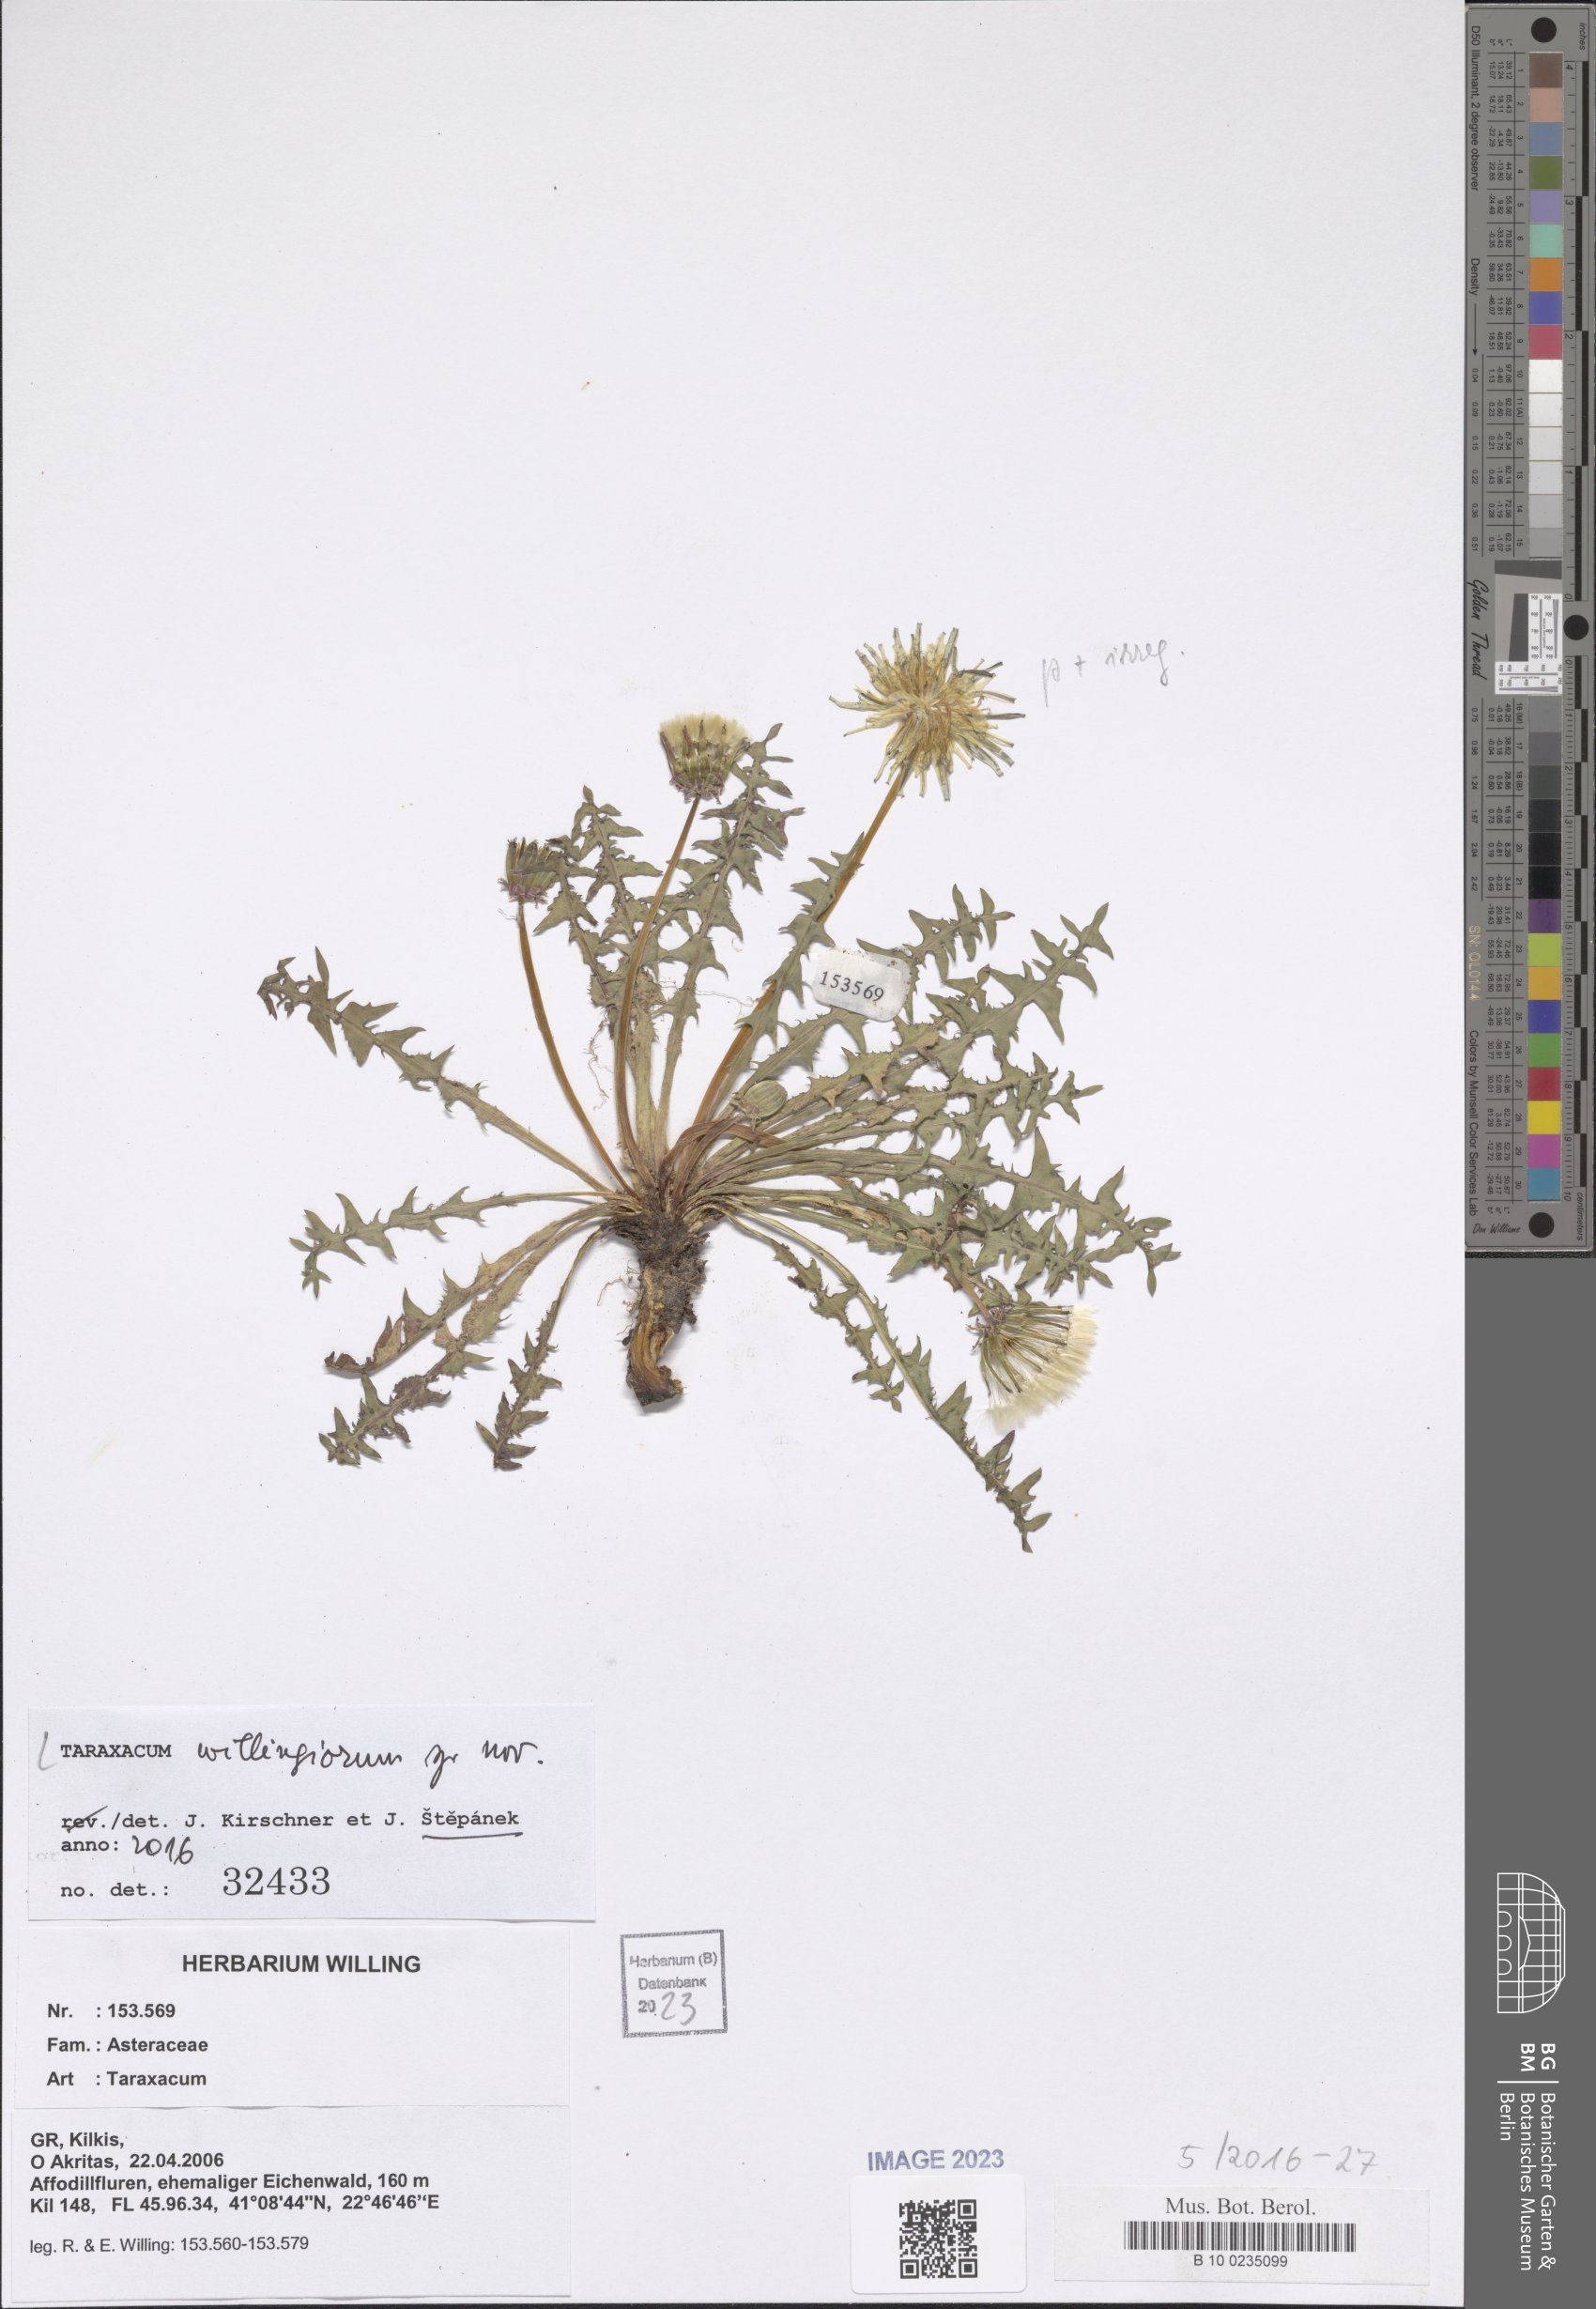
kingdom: Plantae
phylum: Tracheophyta
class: Magnoliopsida
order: Asterales
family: Asteraceae
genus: Taraxacum
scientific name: Taraxacum
